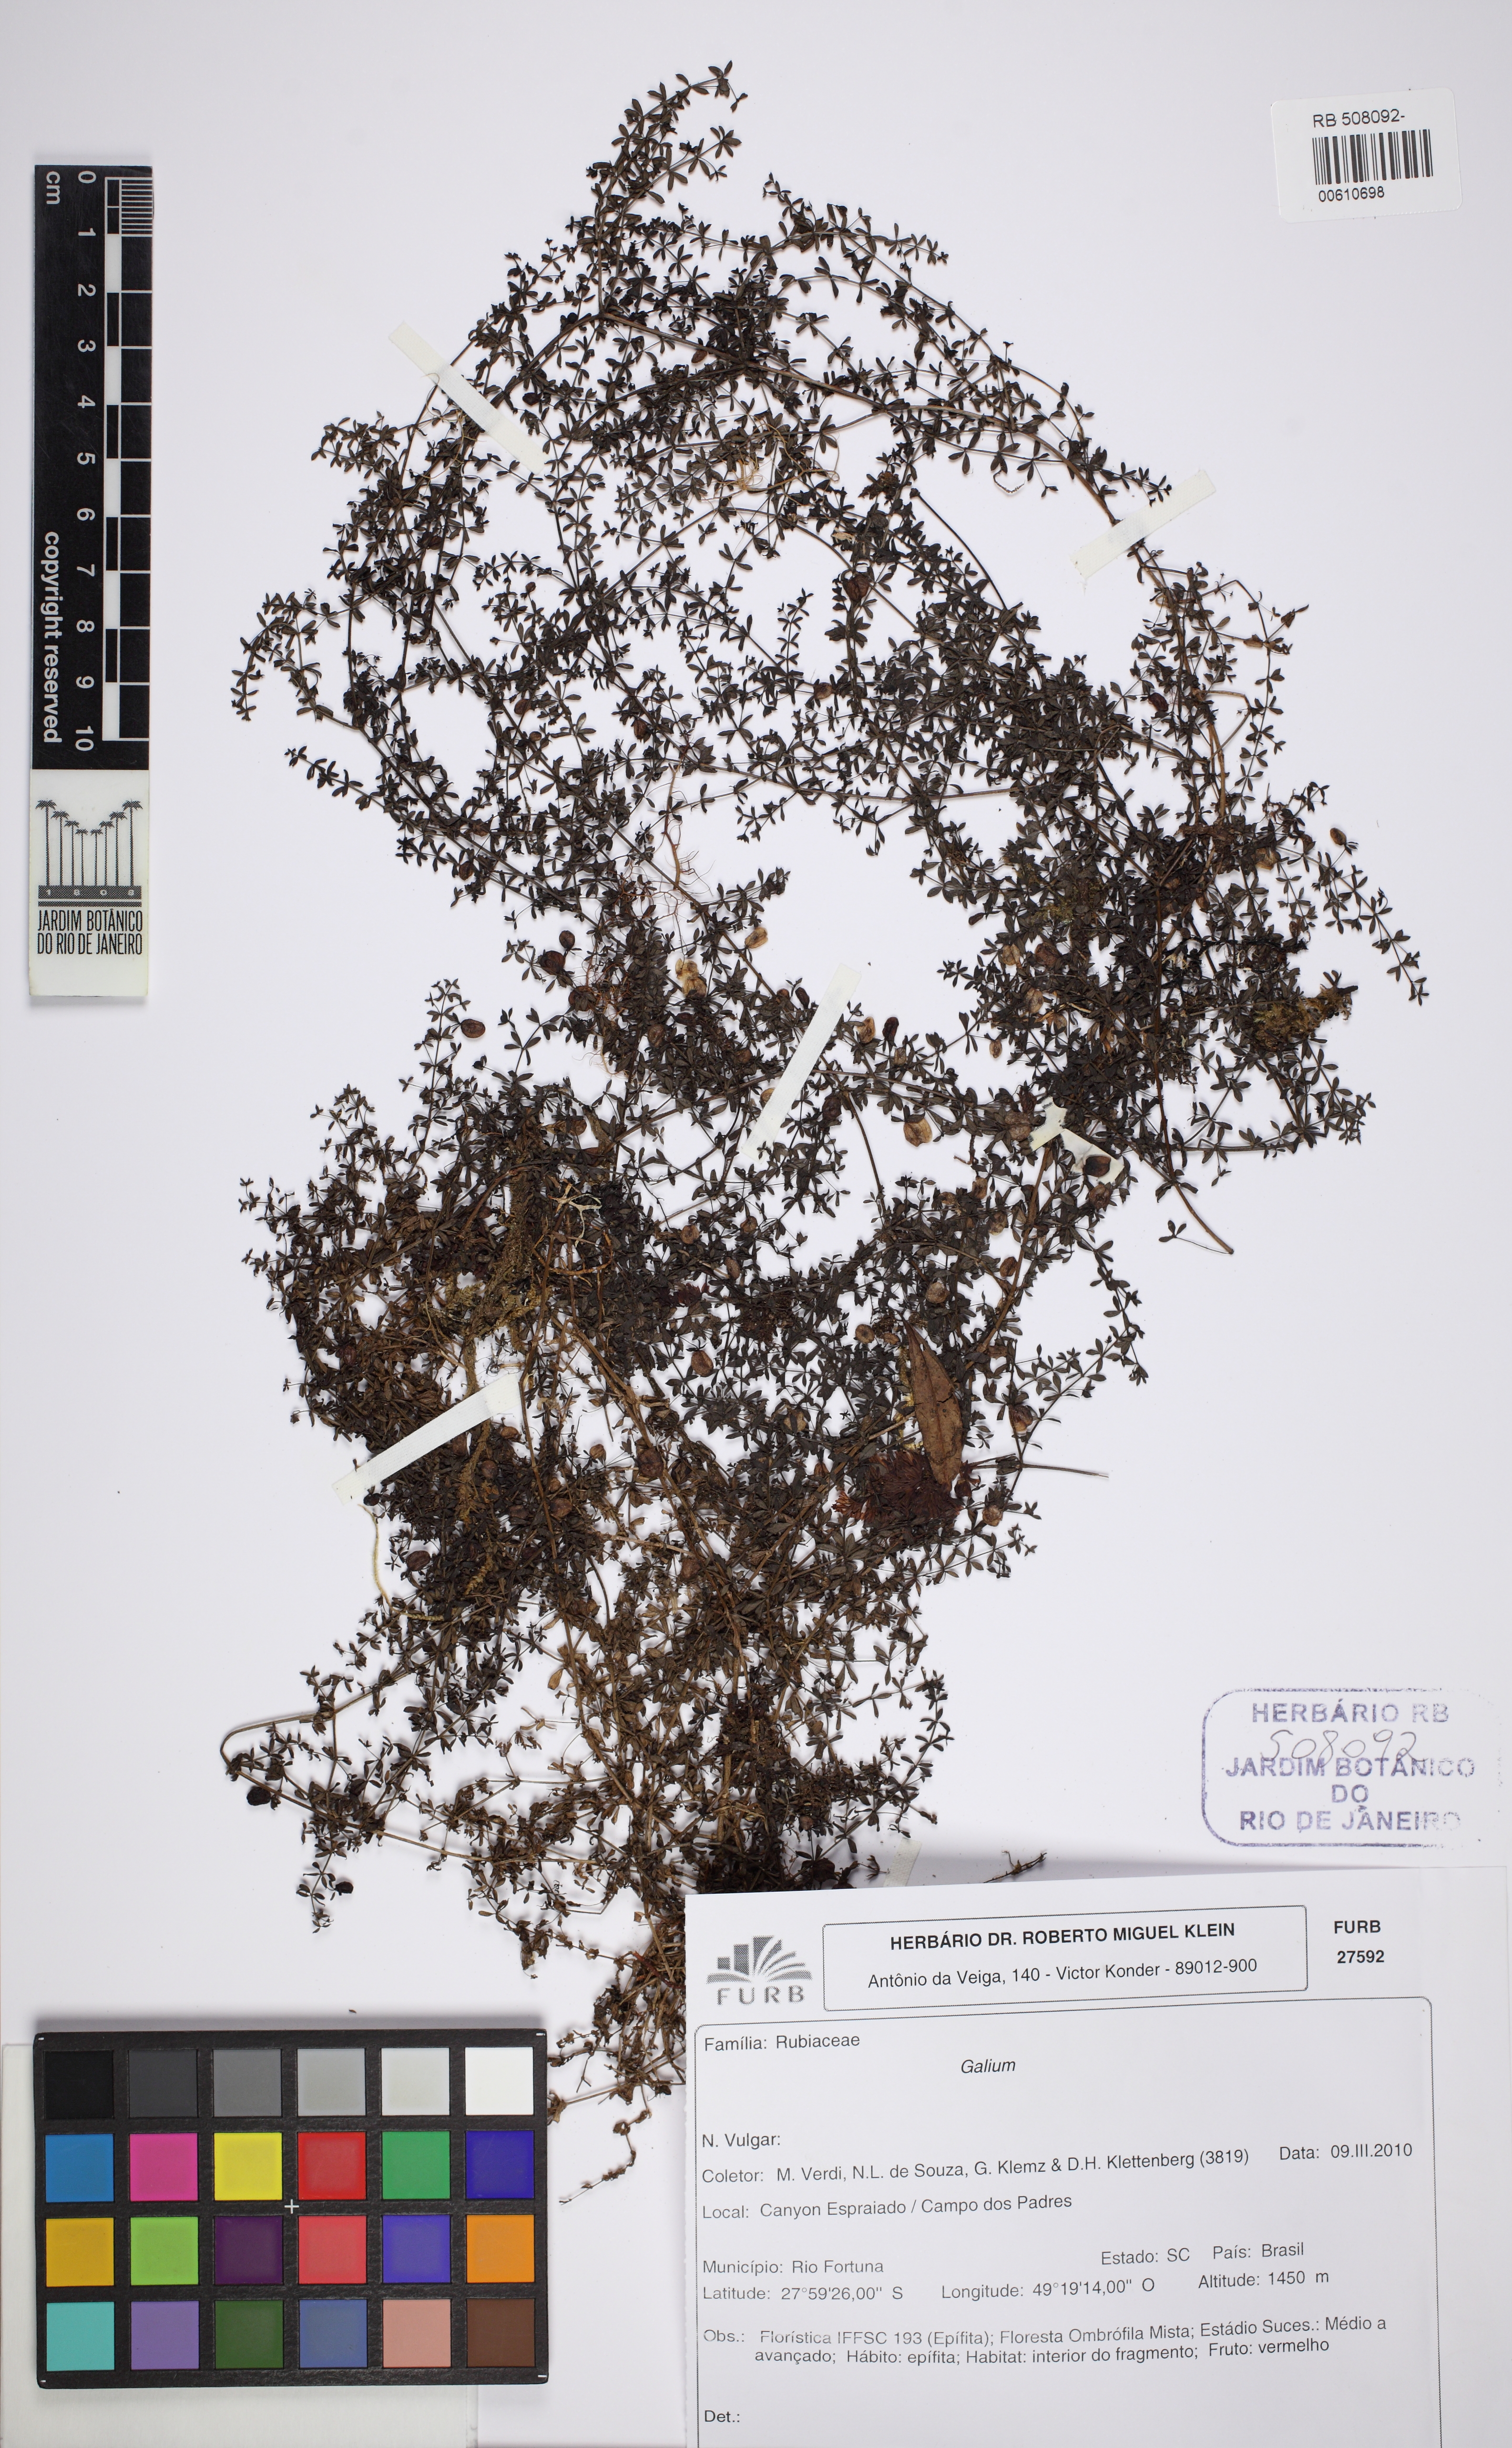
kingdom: Plantae
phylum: Tracheophyta
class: Magnoliopsida
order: Gentianales
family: Rubiaceae
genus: Galium
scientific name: Galium nigroramosum
